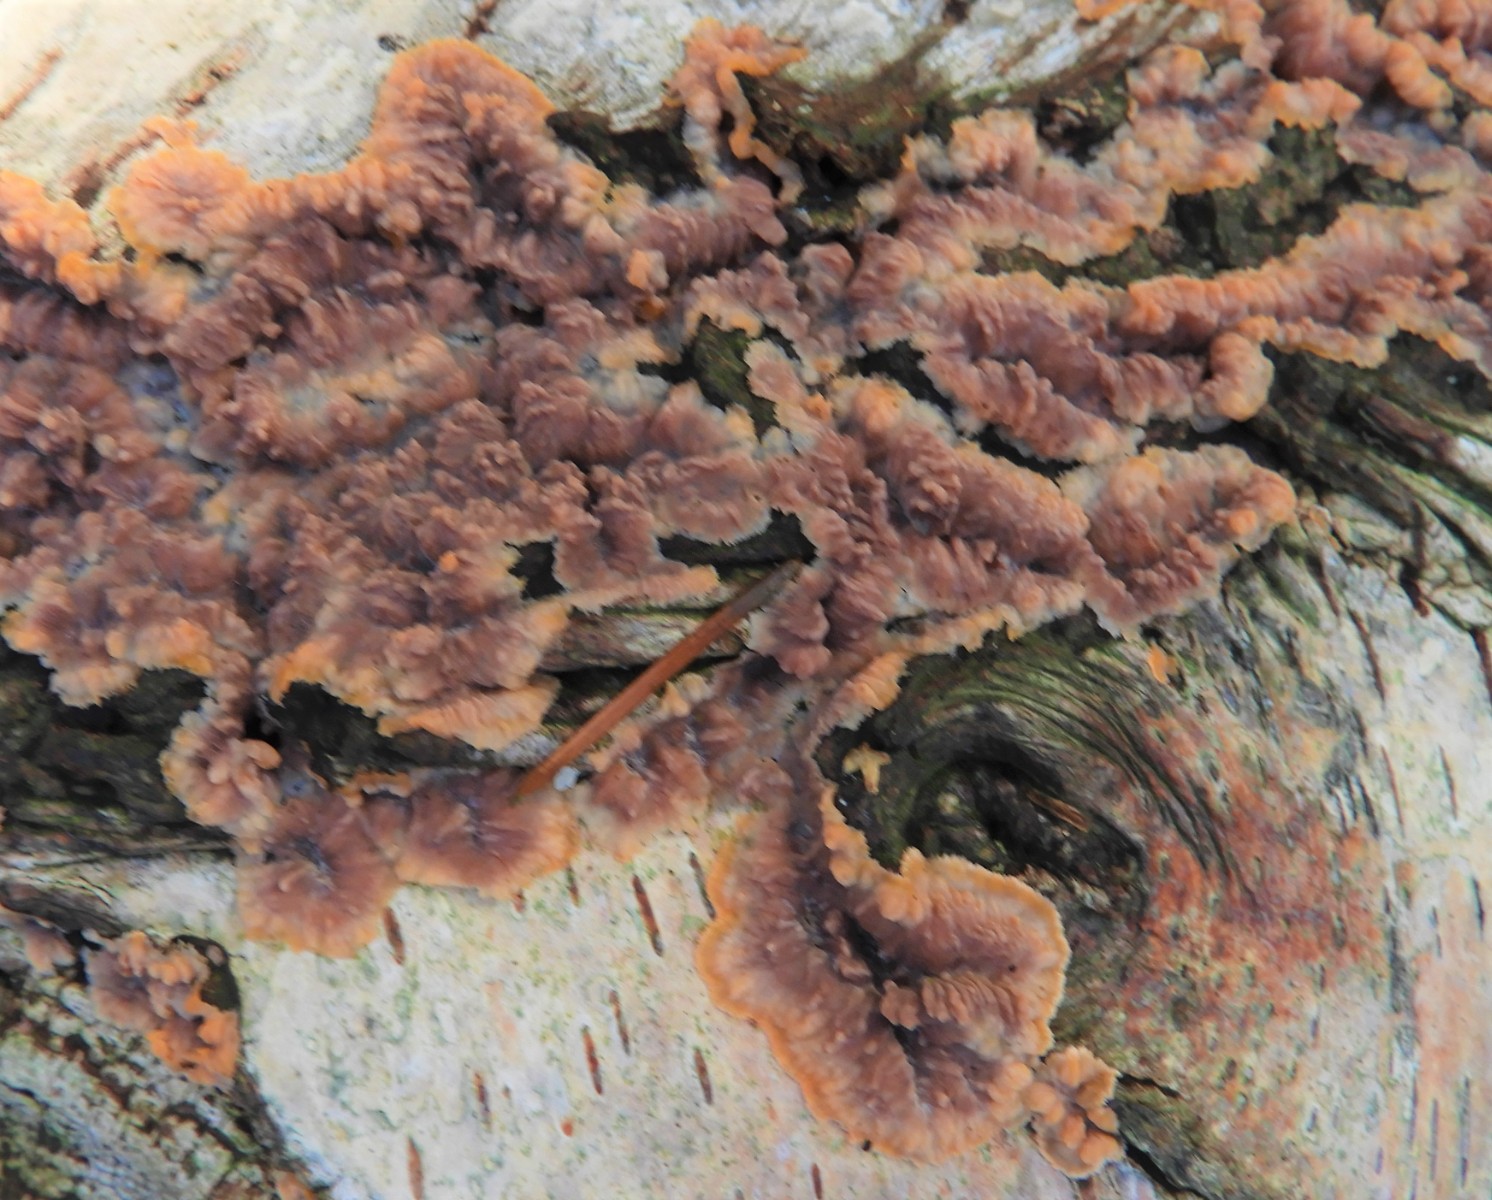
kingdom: Fungi
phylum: Basidiomycota
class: Agaricomycetes
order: Polyporales
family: Meruliaceae
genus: Phlebia
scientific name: Phlebia radiata
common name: stråle-åresvamp
